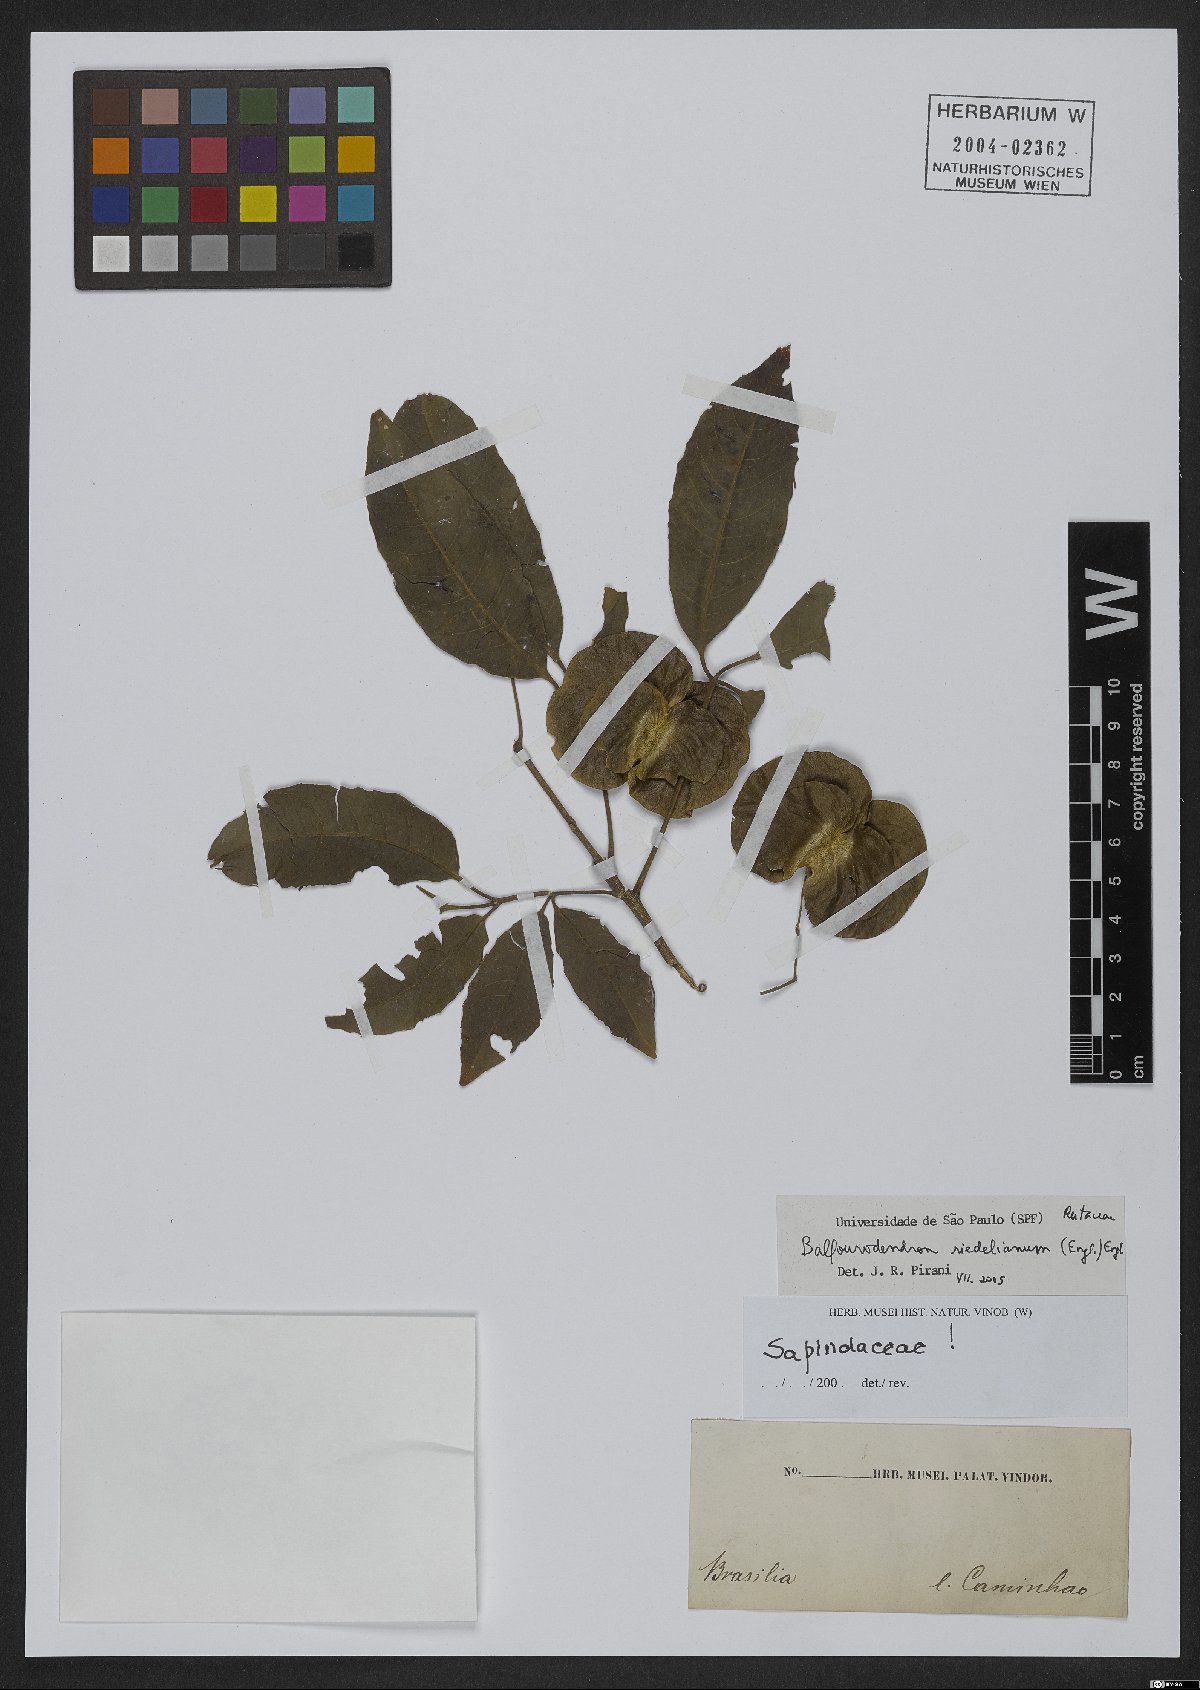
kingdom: Plantae
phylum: Tracheophyta
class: Magnoliopsida
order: Sapindales
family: Rutaceae
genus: Balfourodendron
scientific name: Balfourodendron riedelianum
